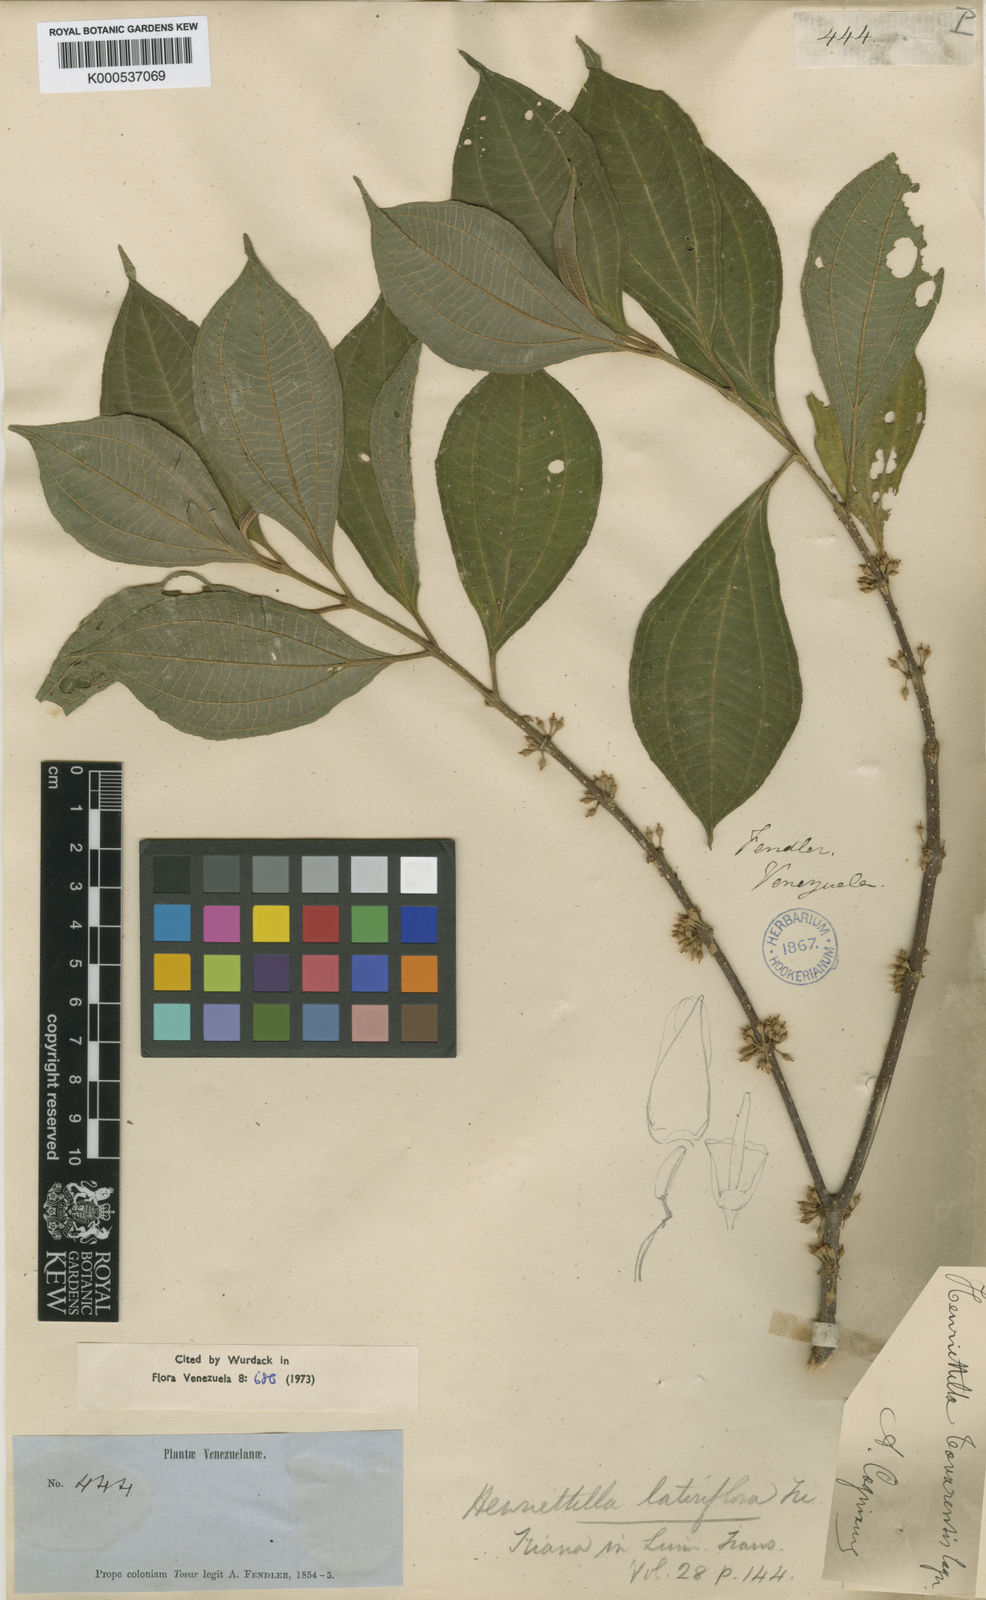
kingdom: Plantae
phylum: Tracheophyta
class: Magnoliopsida
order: Myrtales
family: Melastomataceae
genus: Henriettea
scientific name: Henriettea tovarensis
